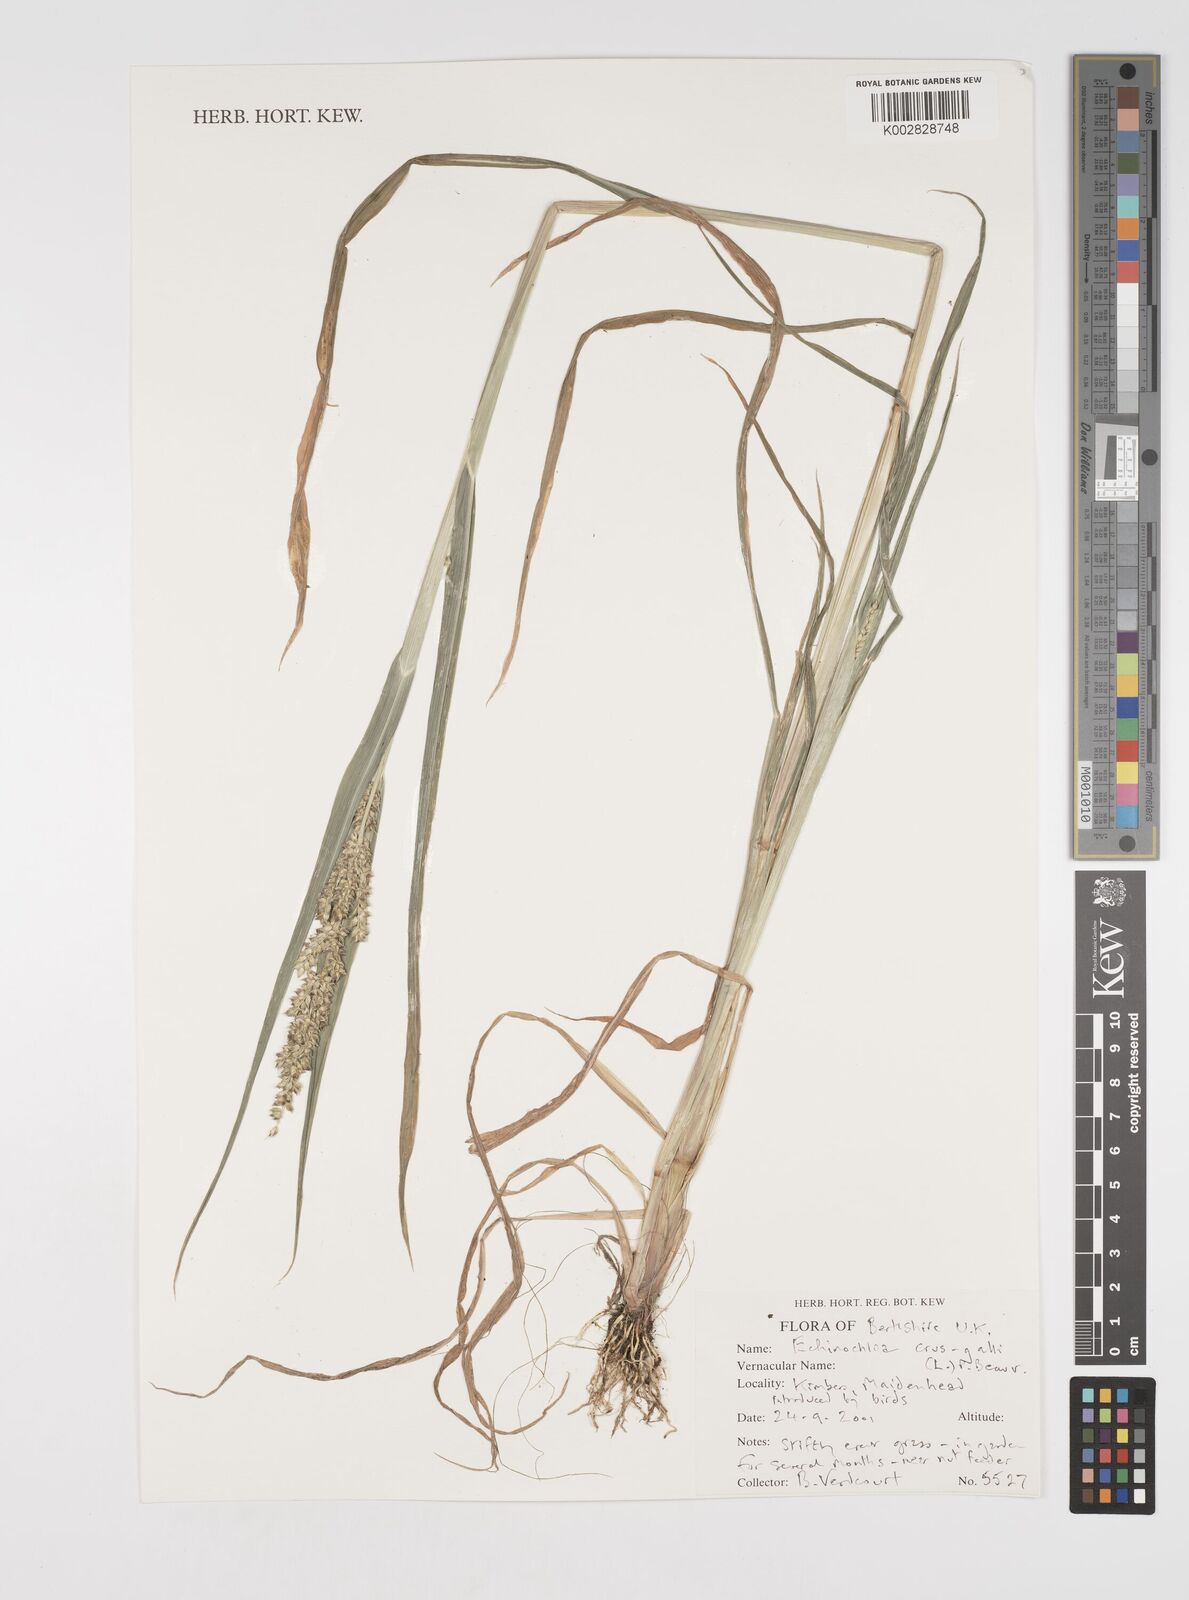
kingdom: Plantae
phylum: Tracheophyta
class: Liliopsida
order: Poales
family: Poaceae
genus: Echinochloa
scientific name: Echinochloa crus-galli
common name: Cockspur
